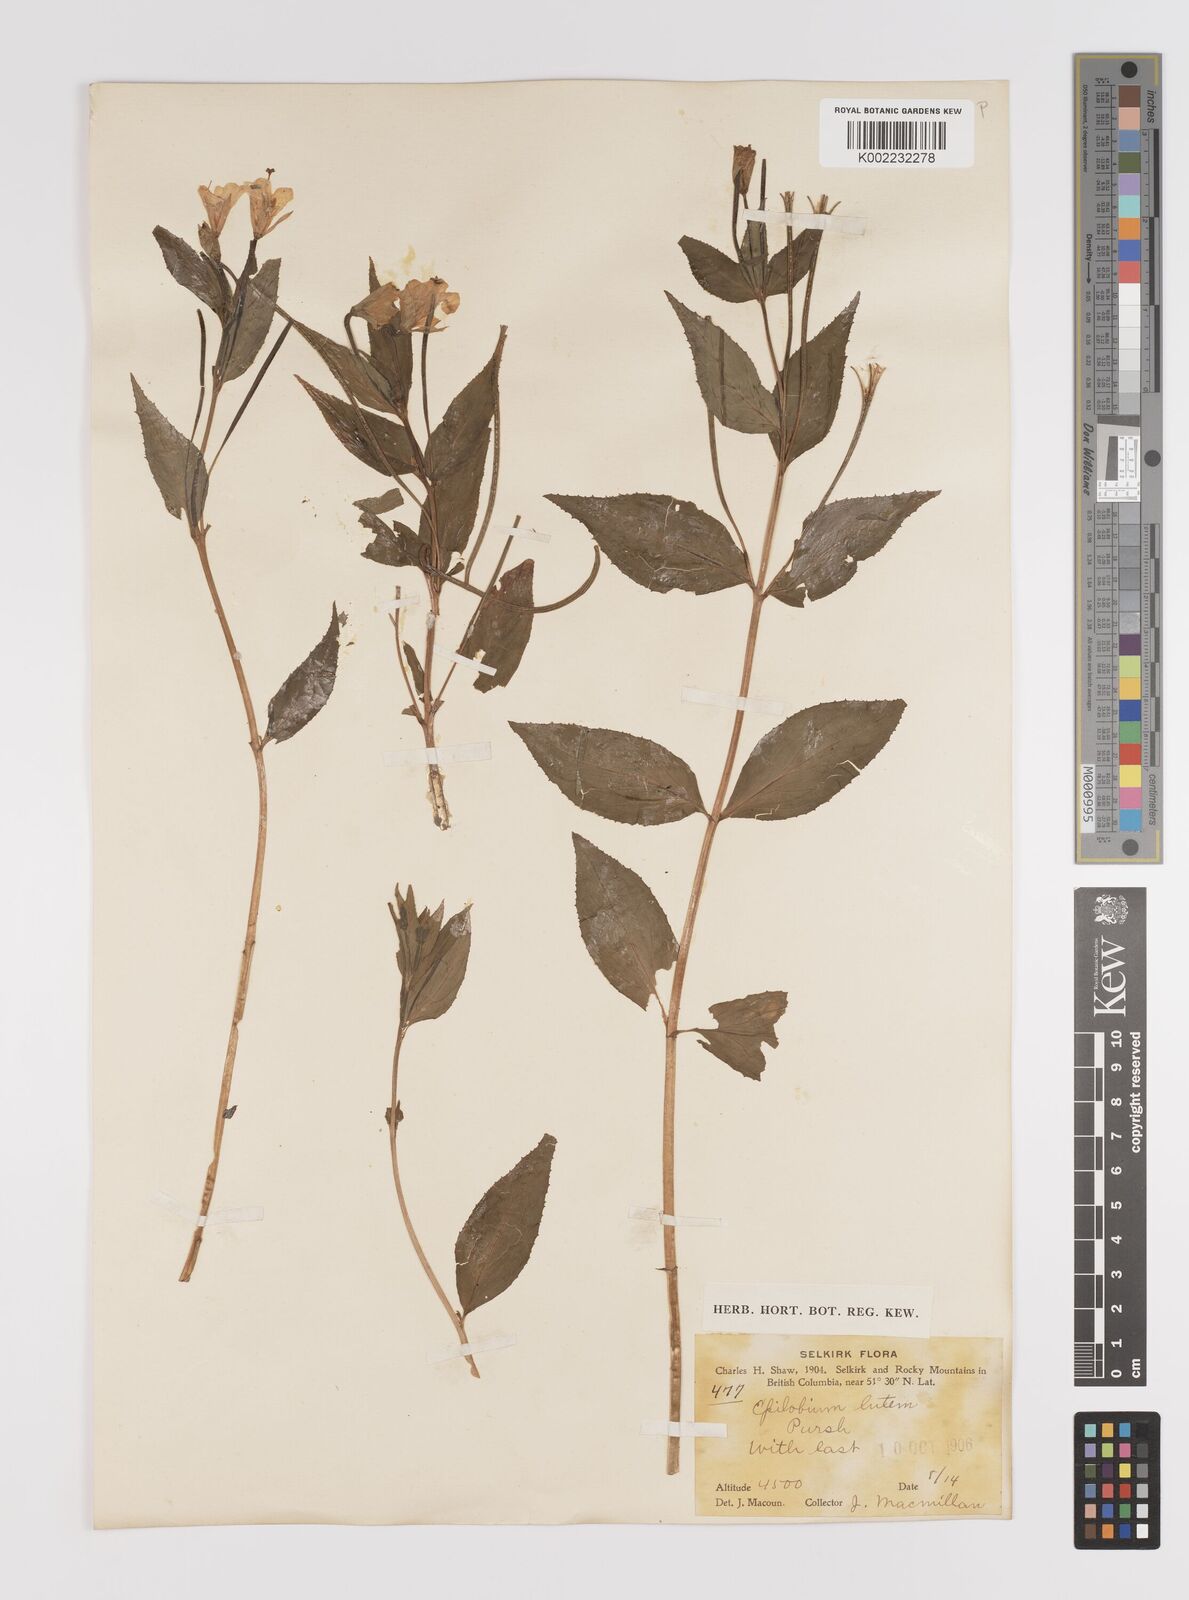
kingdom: Plantae
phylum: Tracheophyta
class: Magnoliopsida
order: Myrtales
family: Onagraceae
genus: Epilobium
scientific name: Epilobium luteum
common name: Yellow willowherb
